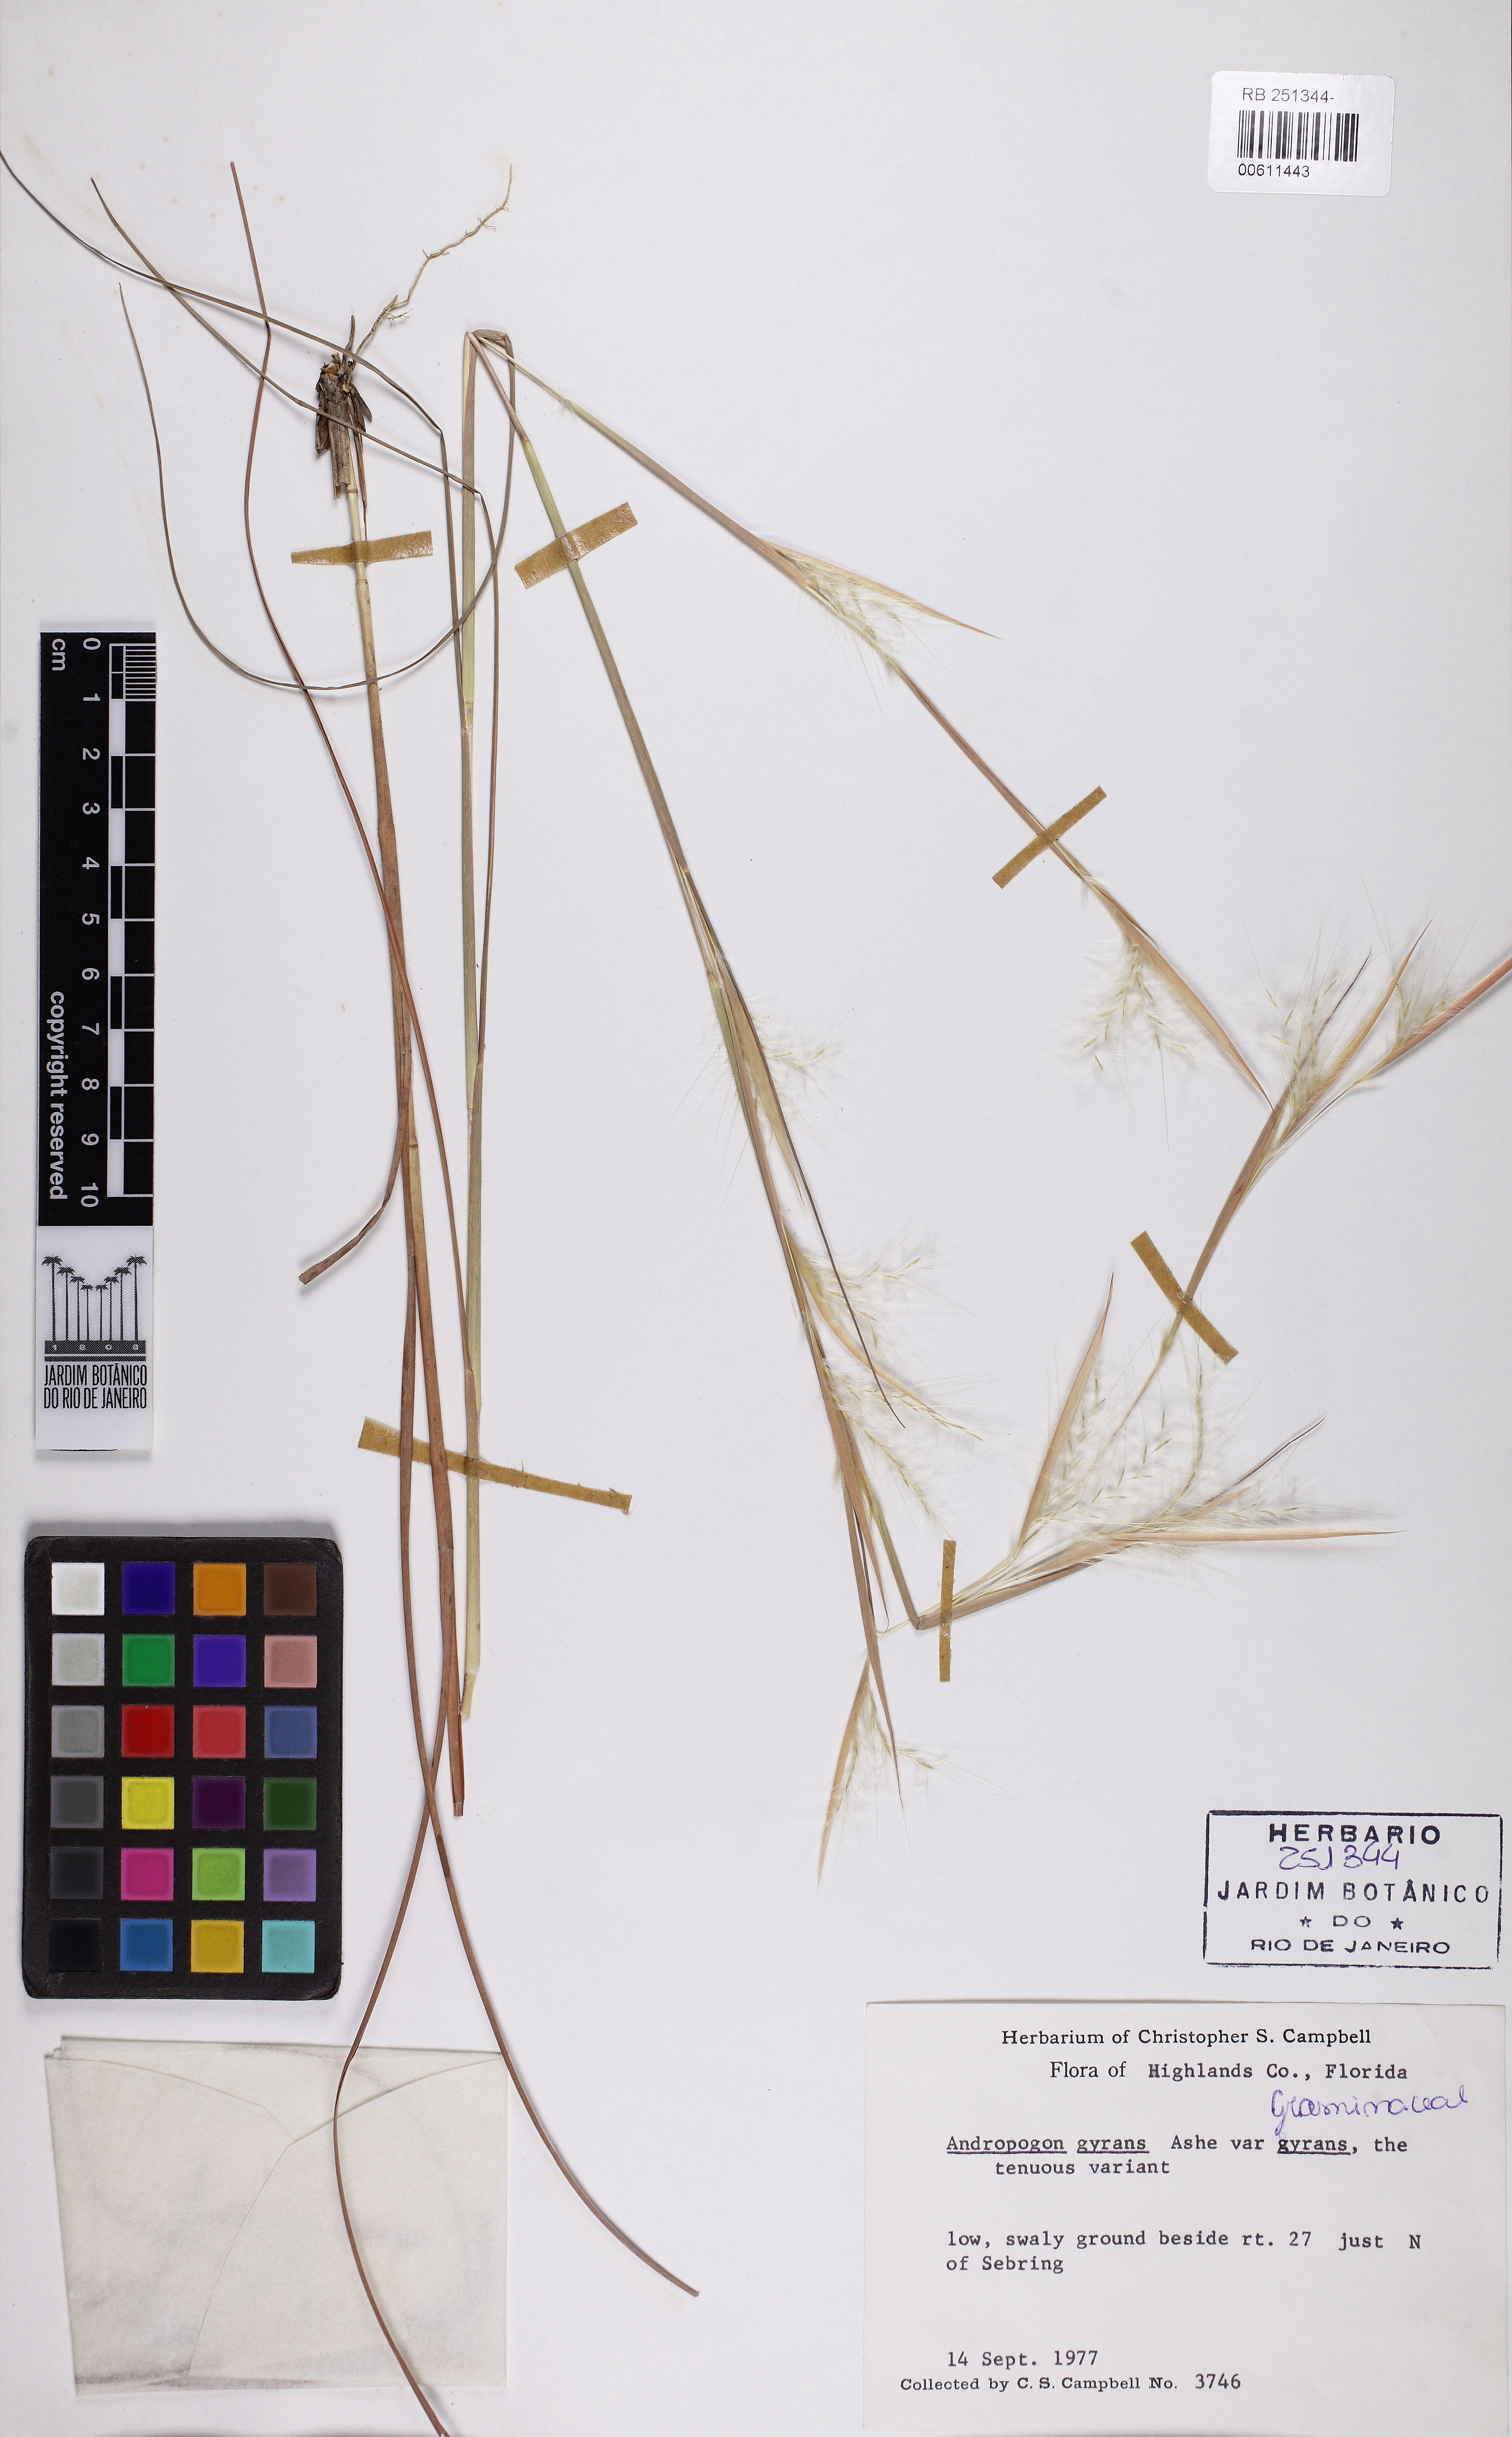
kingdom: Plantae
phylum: Tracheophyta
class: Liliopsida
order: Poales
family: Poaceae
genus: Andropogon
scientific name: Andropogon gyrans
